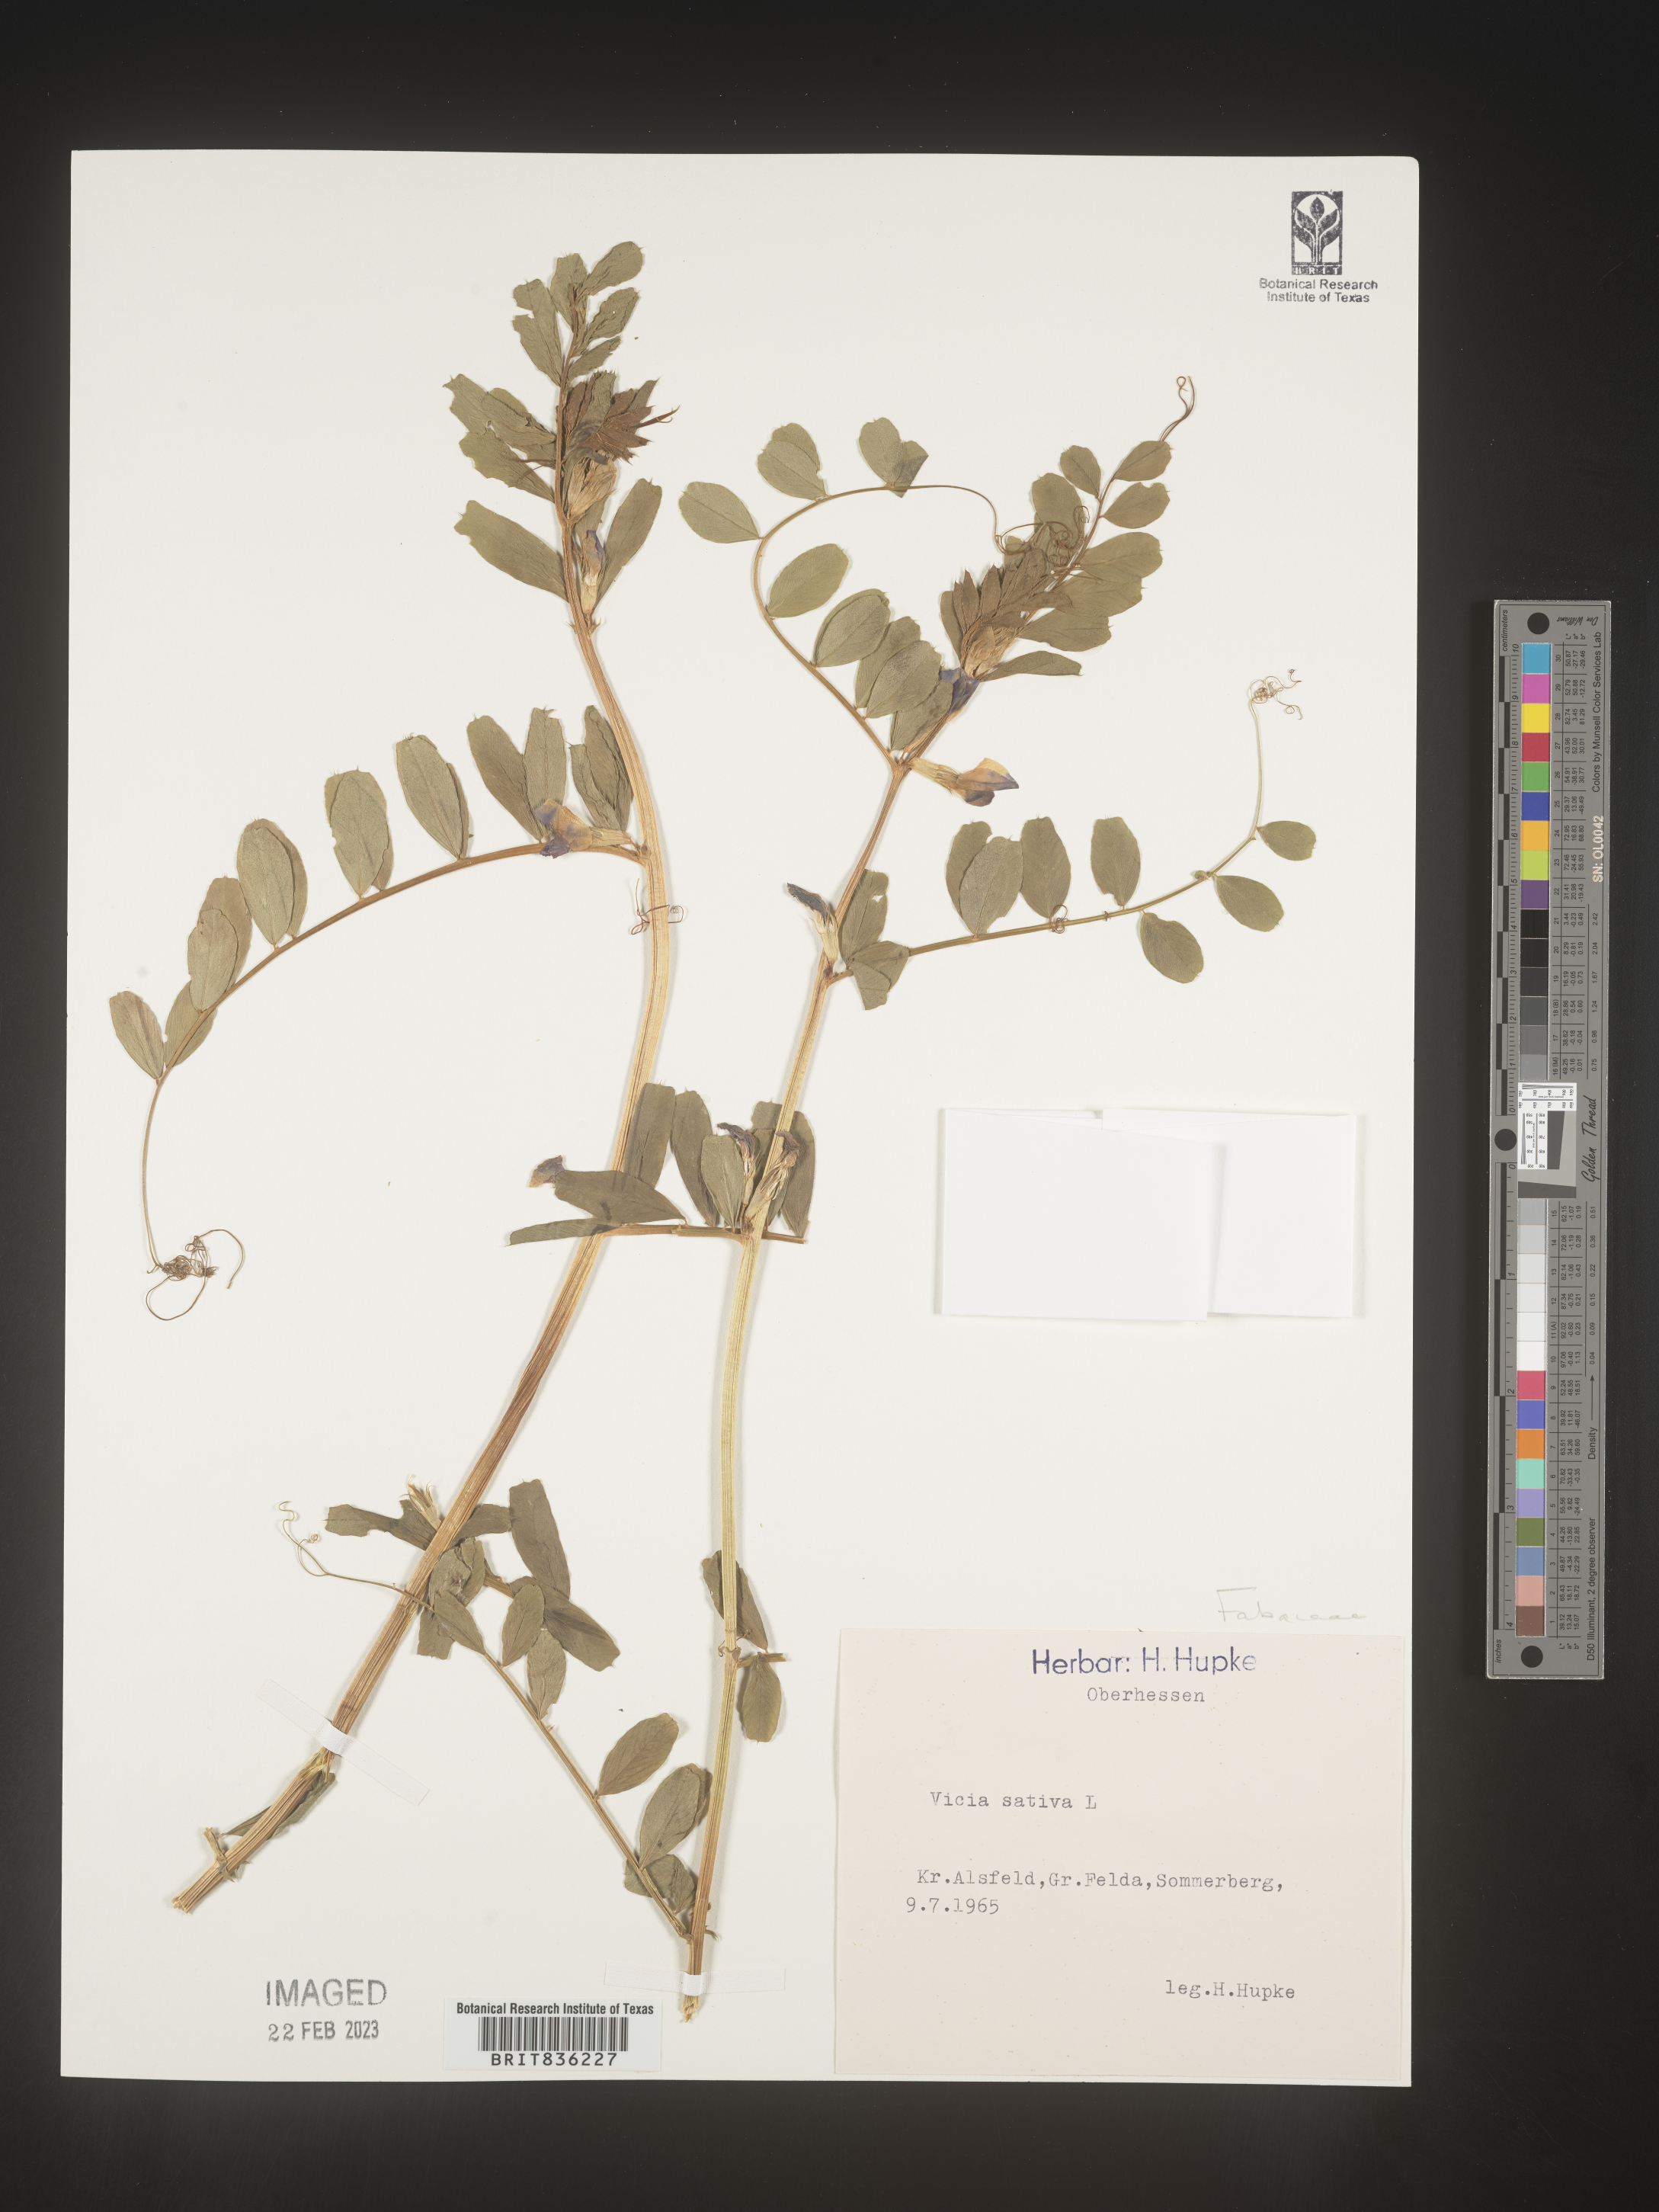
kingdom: Plantae
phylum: Tracheophyta
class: Magnoliopsida
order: Fabales
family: Fabaceae
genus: Vicia
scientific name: Vicia
